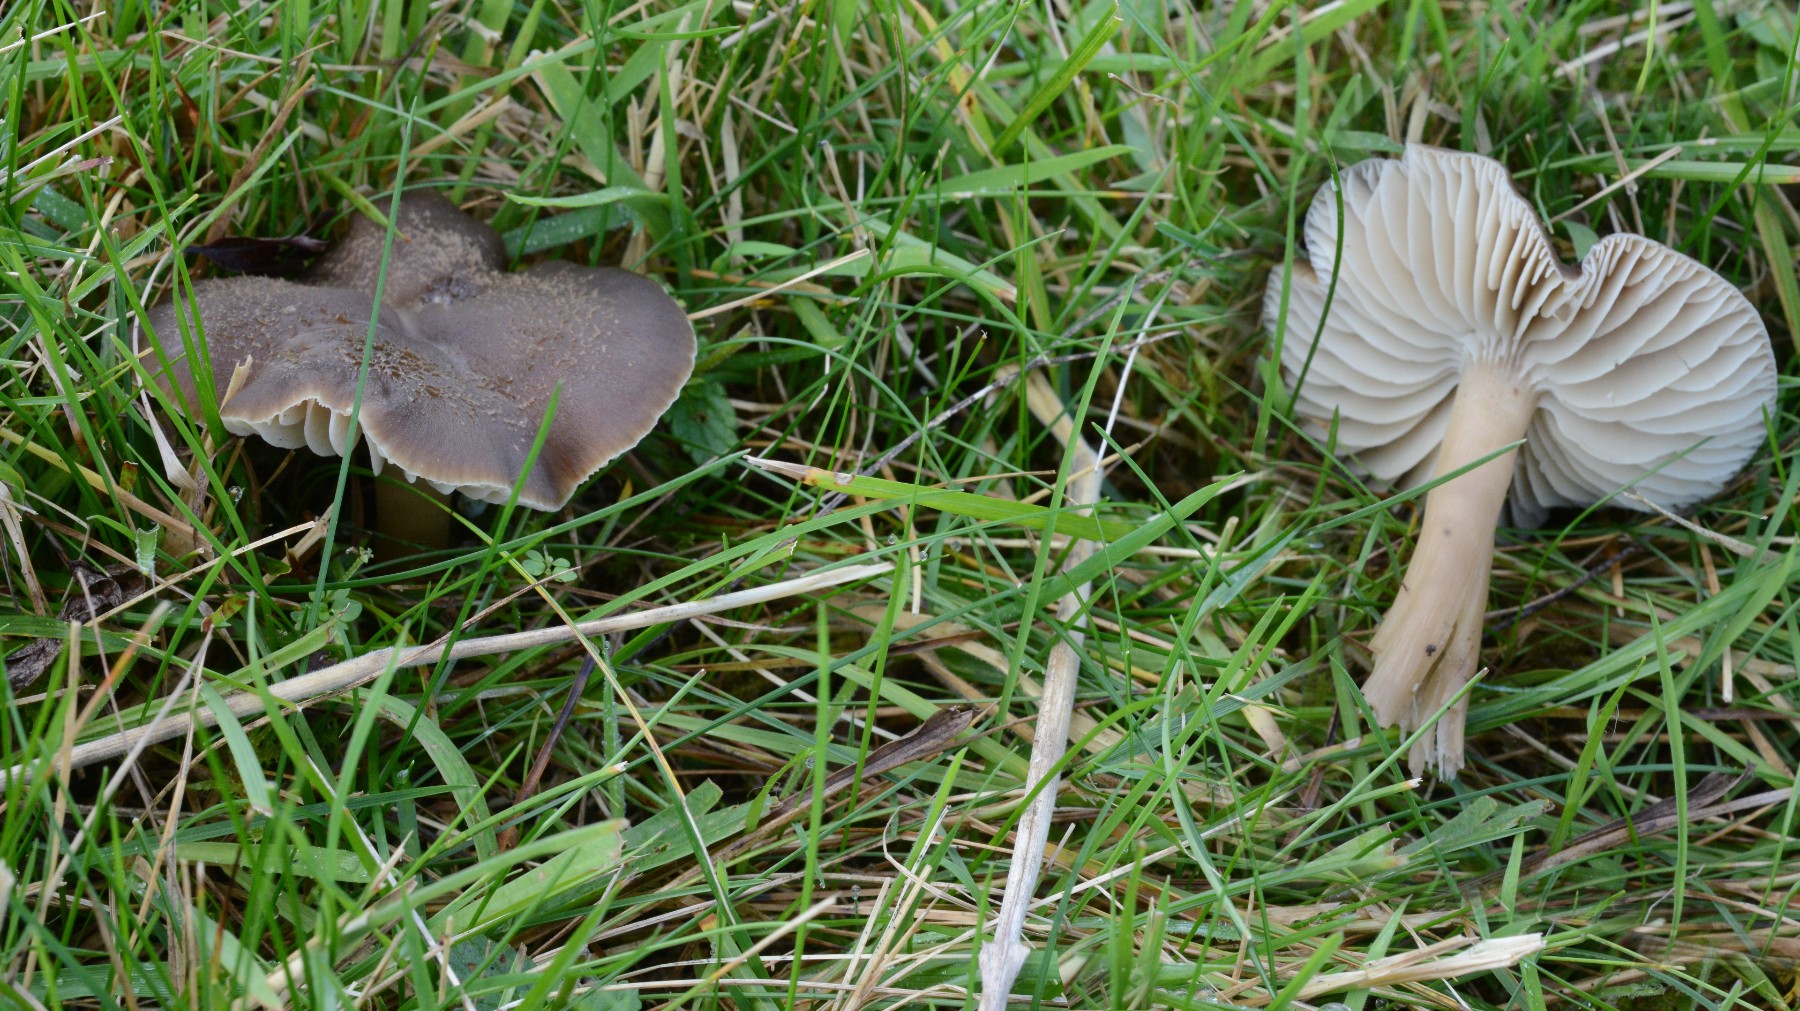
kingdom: Fungi
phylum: Basidiomycota
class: Agaricomycetes
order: Agaricales
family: Hygrophoraceae
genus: Neohygrocybe
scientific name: Neohygrocybe nitrata
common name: stinkende vokshat
